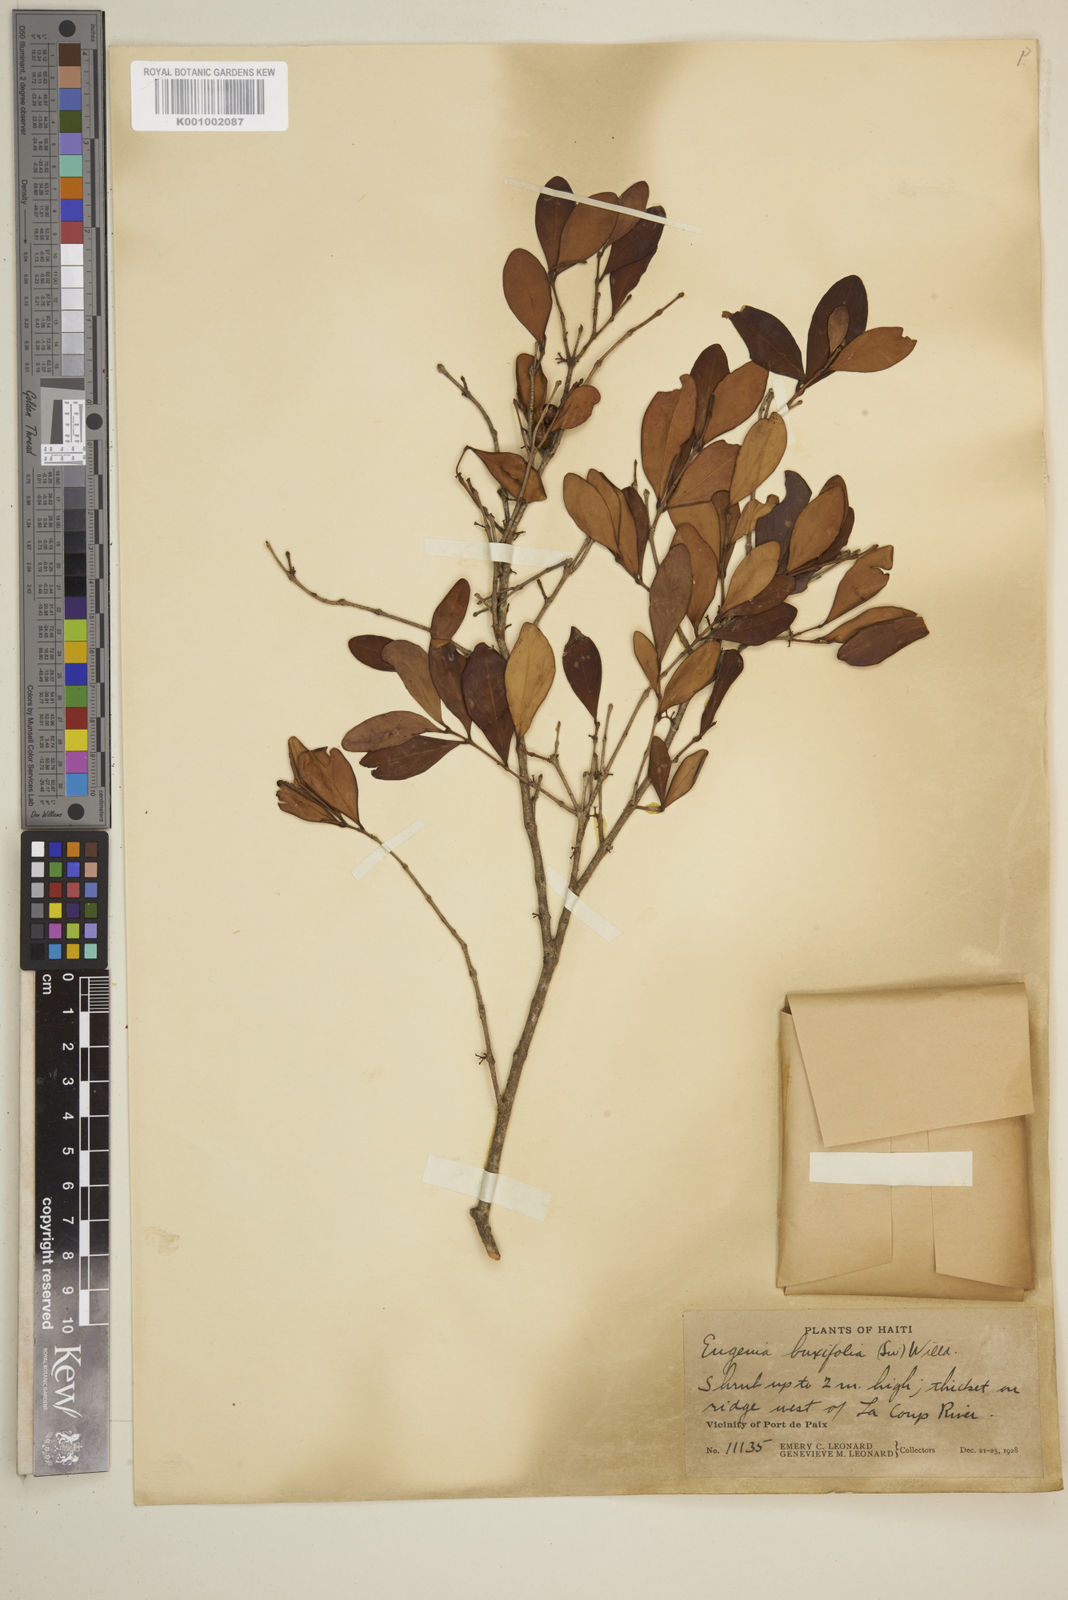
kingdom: Plantae
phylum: Tracheophyta
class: Magnoliopsida
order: Myrtales
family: Myrtaceae
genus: Eugenia
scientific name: Eugenia buxifolia
